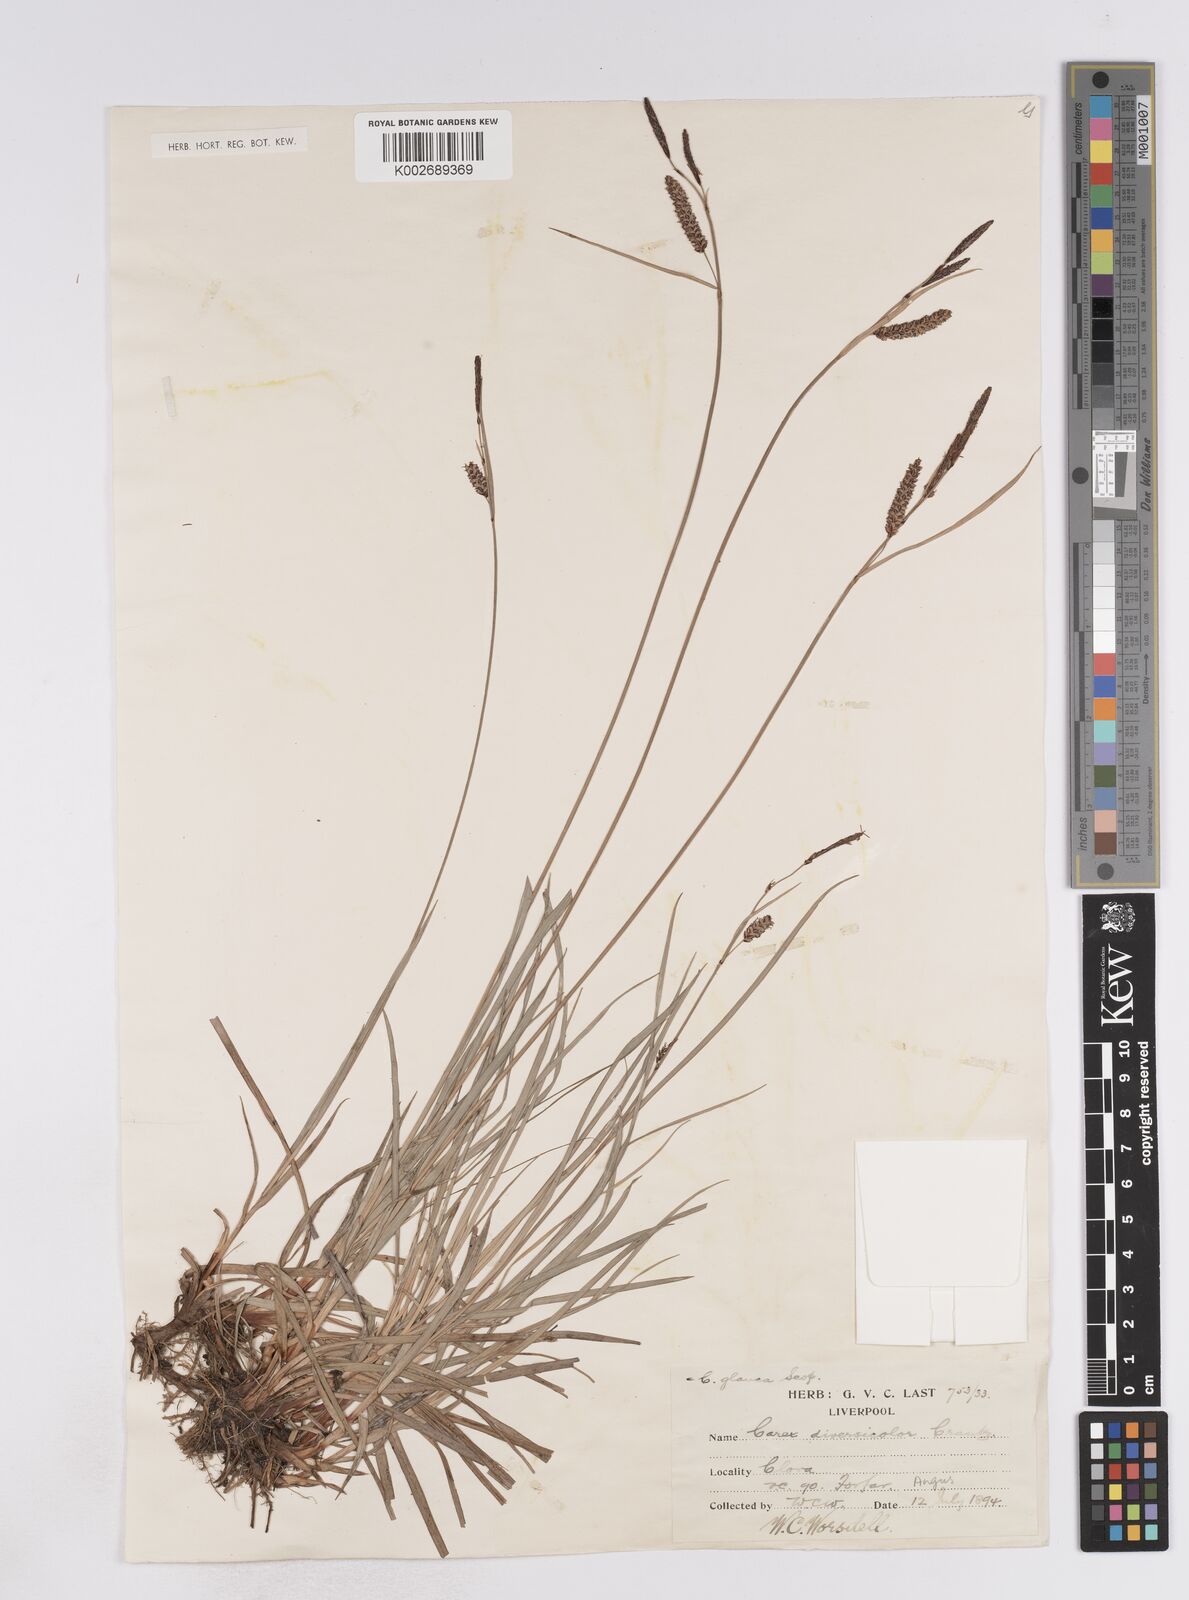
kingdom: Plantae
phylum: Tracheophyta
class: Liliopsida
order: Poales
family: Cyperaceae
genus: Carex
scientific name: Carex flacca
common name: Glaucous sedge
